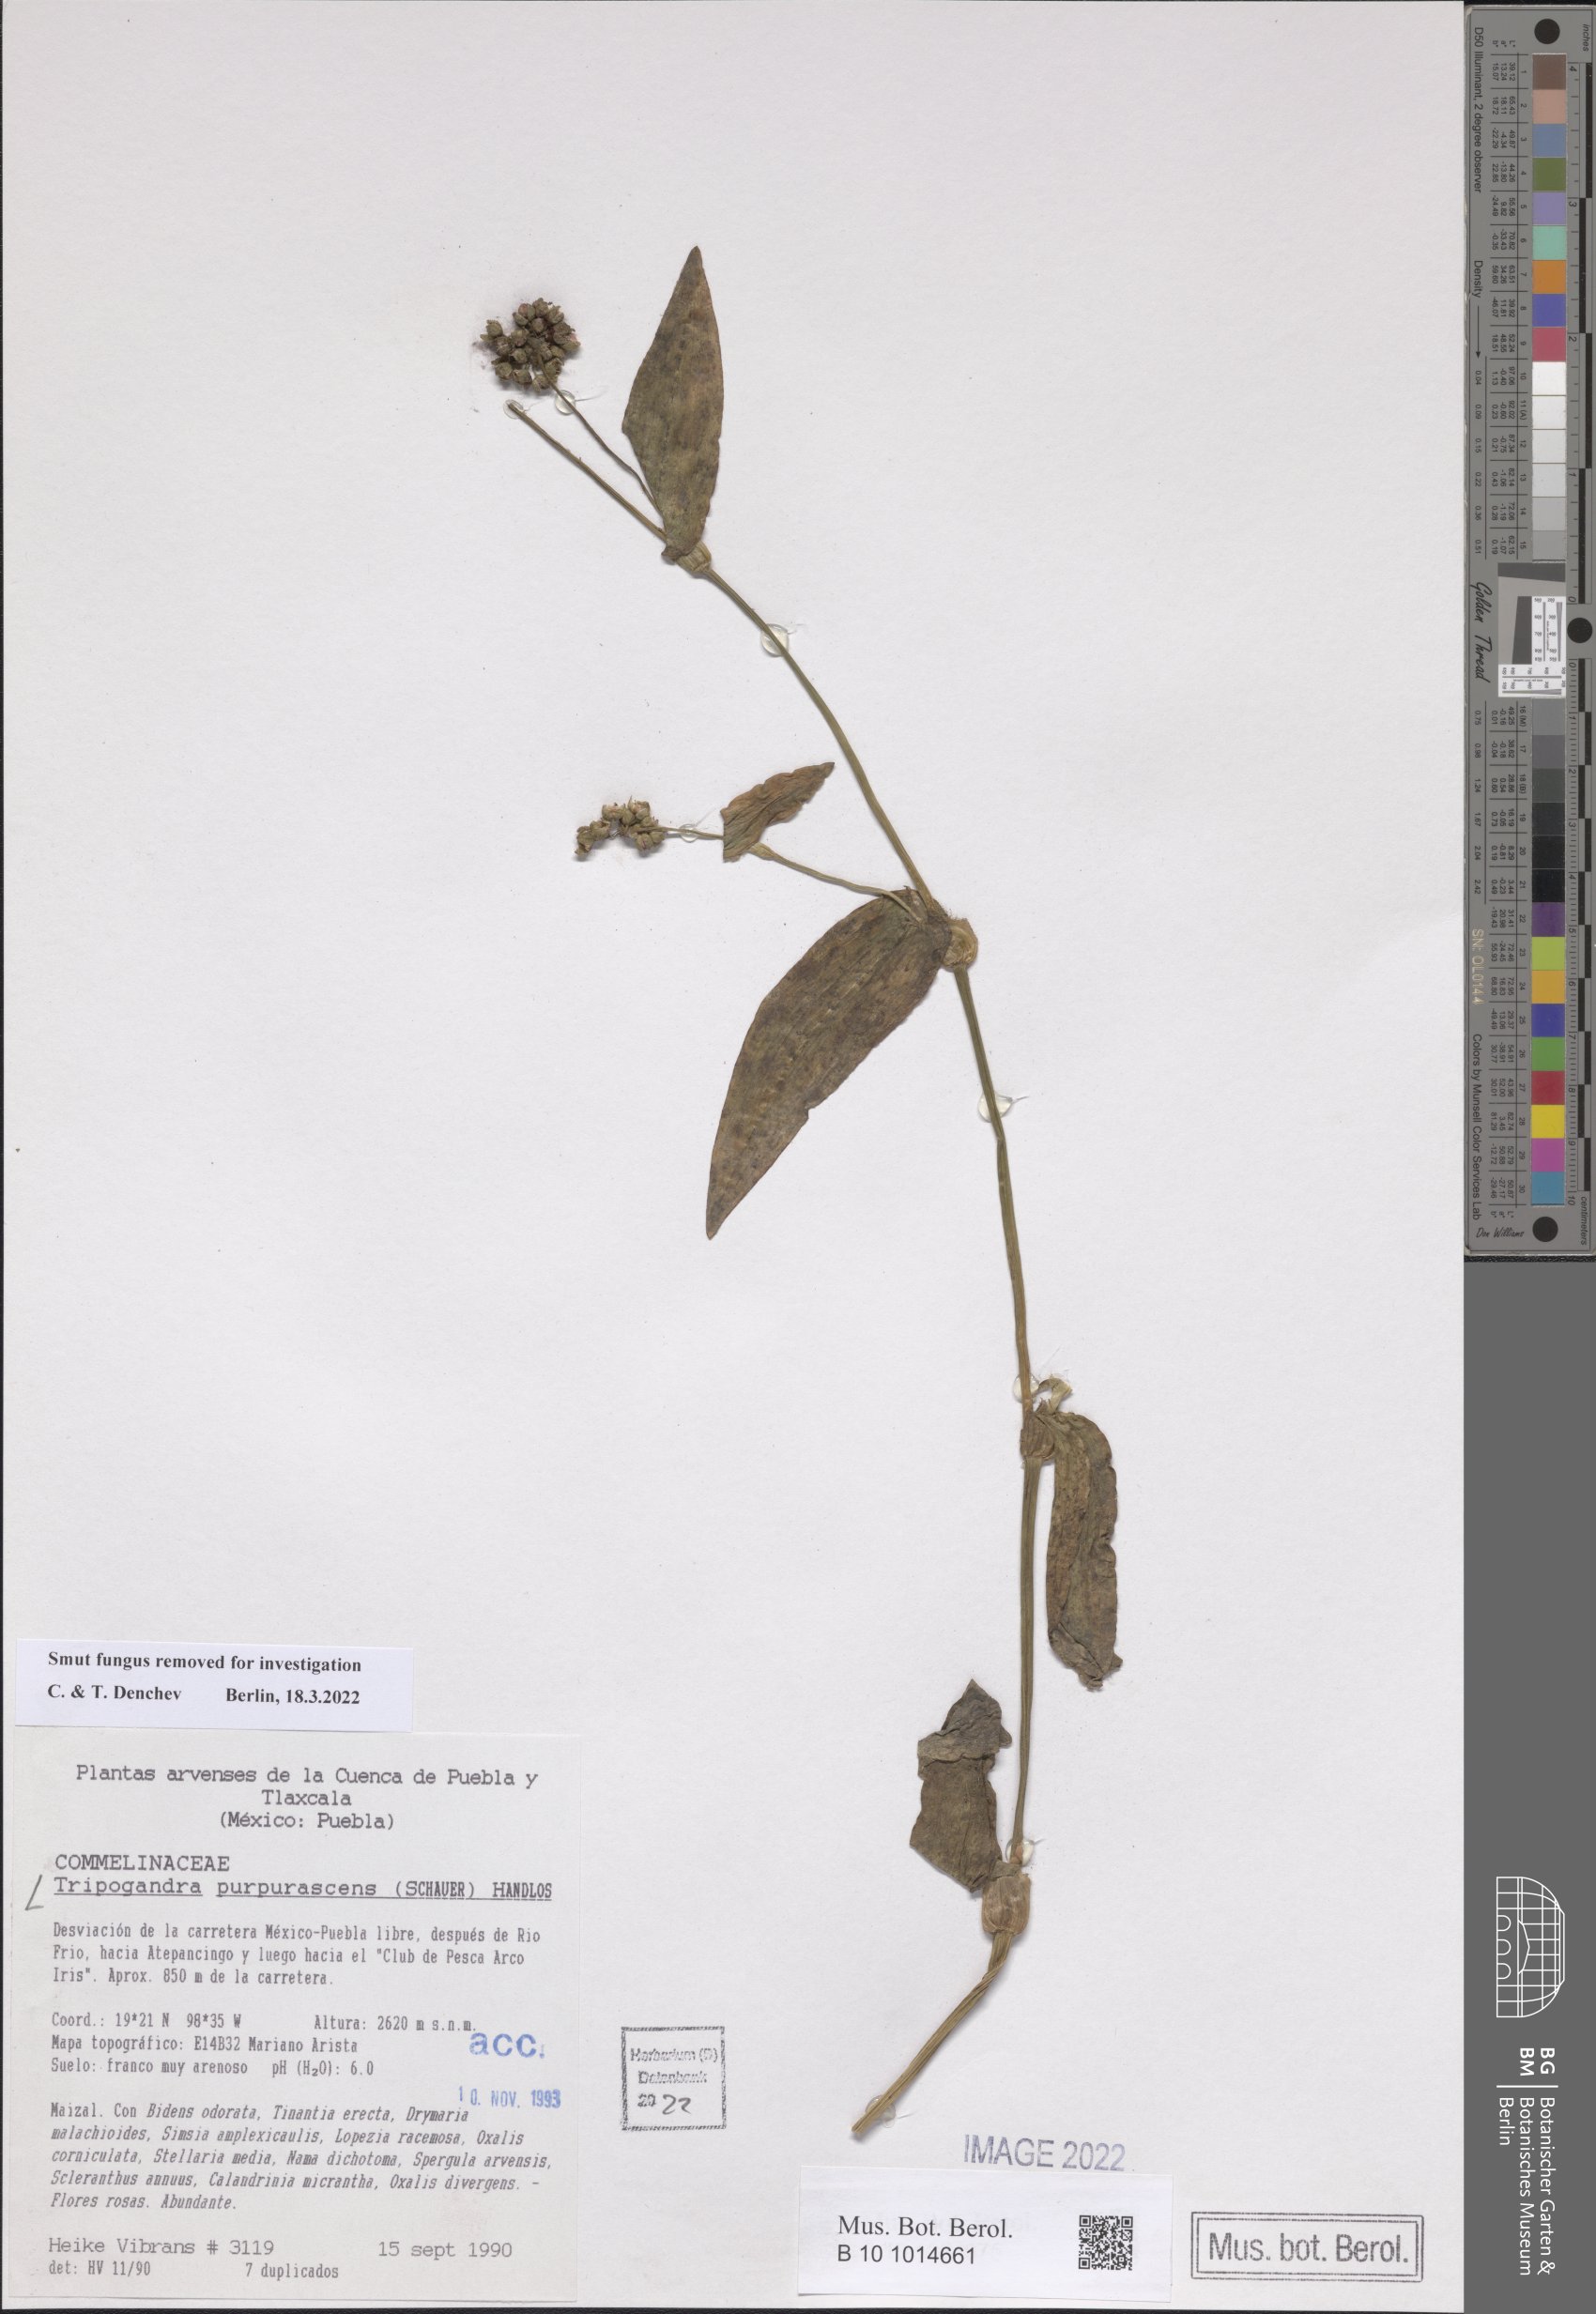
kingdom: Plantae
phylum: Tracheophyta
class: Liliopsida
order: Commelinales
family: Commelinaceae
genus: Callisia
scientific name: Callisia purpurascens
